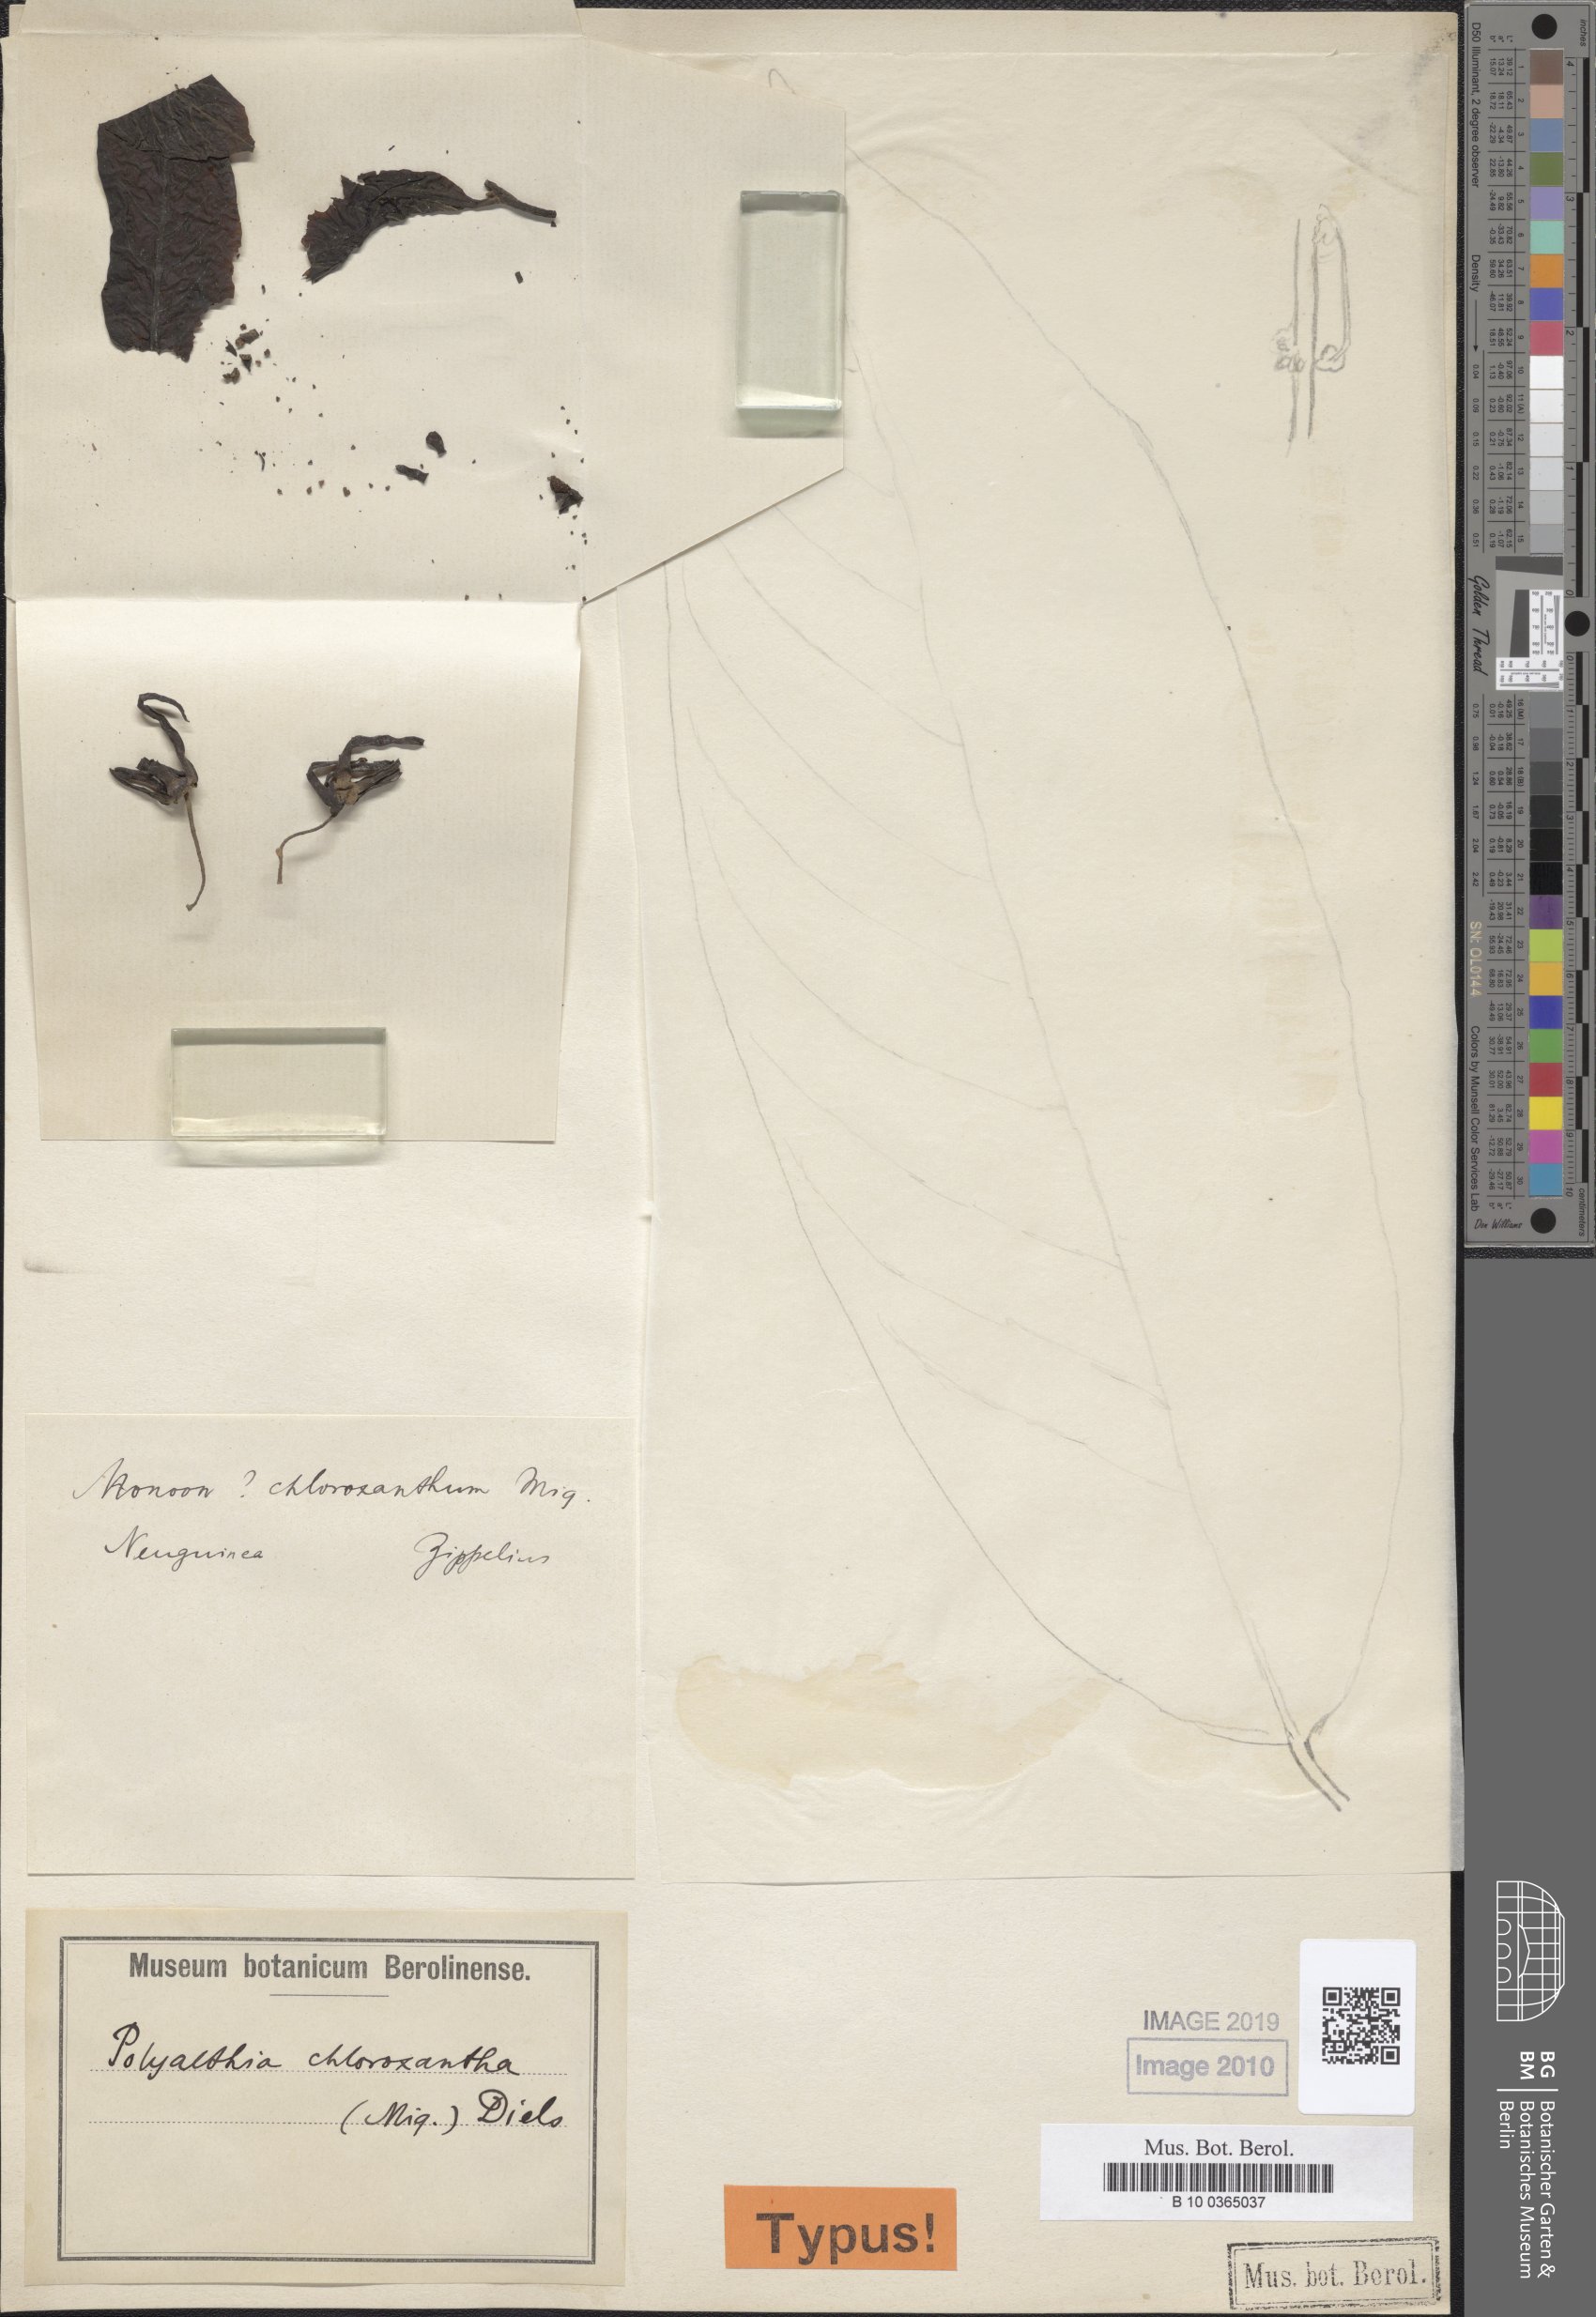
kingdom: Plantae
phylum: Tracheophyta
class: Magnoliopsida
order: Magnoliales
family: Annonaceae
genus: Polyalthia
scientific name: Polyalthia chloroxantha
